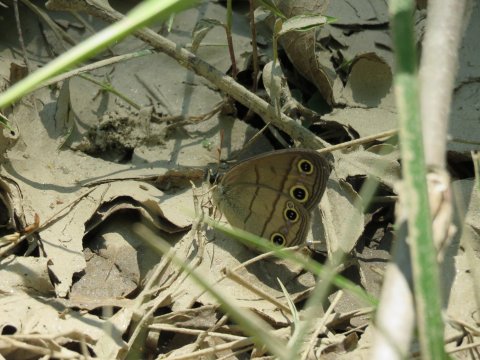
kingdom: Animalia
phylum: Arthropoda
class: Insecta
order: Lepidoptera
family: Nymphalidae
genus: Euptychia
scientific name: Euptychia cymela
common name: Little Wood Satyr
